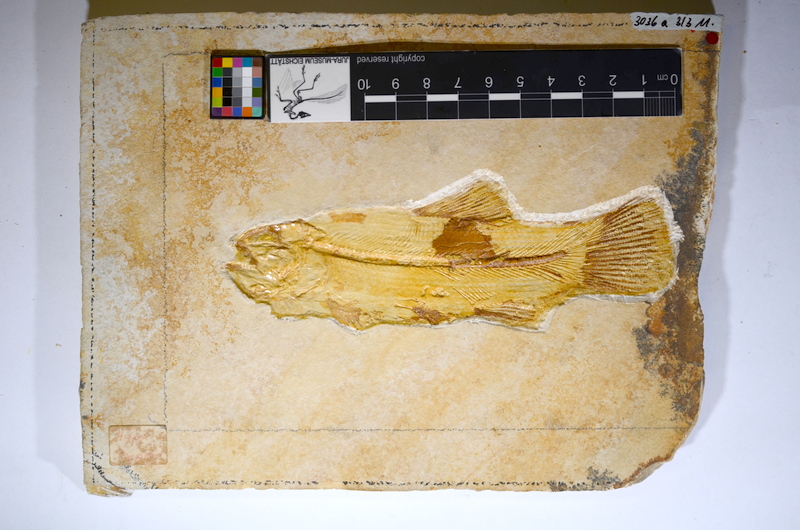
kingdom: Animalia
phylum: Chordata
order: Amiiformes
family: Amiidae
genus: Amiopsis
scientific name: Amiopsis lepidota
